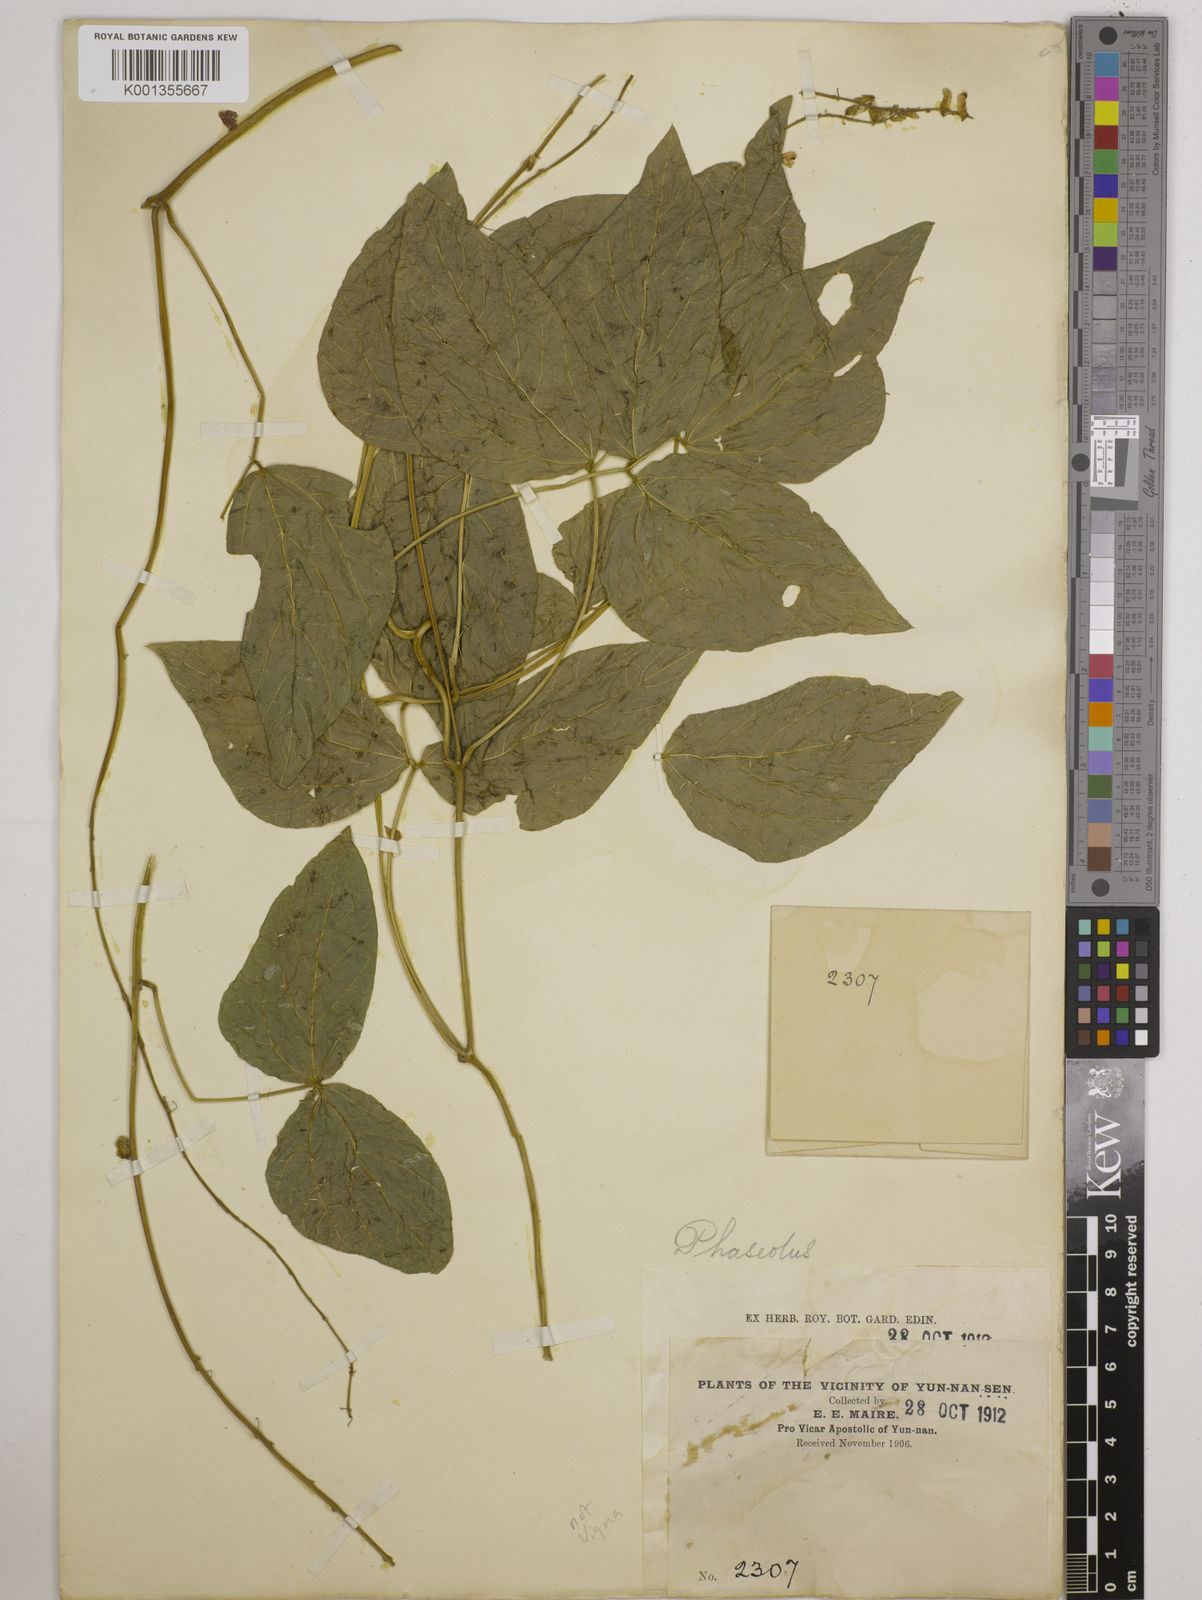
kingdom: Plantae
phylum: Tracheophyta
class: Magnoliopsida
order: Fabales
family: Fabaceae
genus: Vigna
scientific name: Vigna
